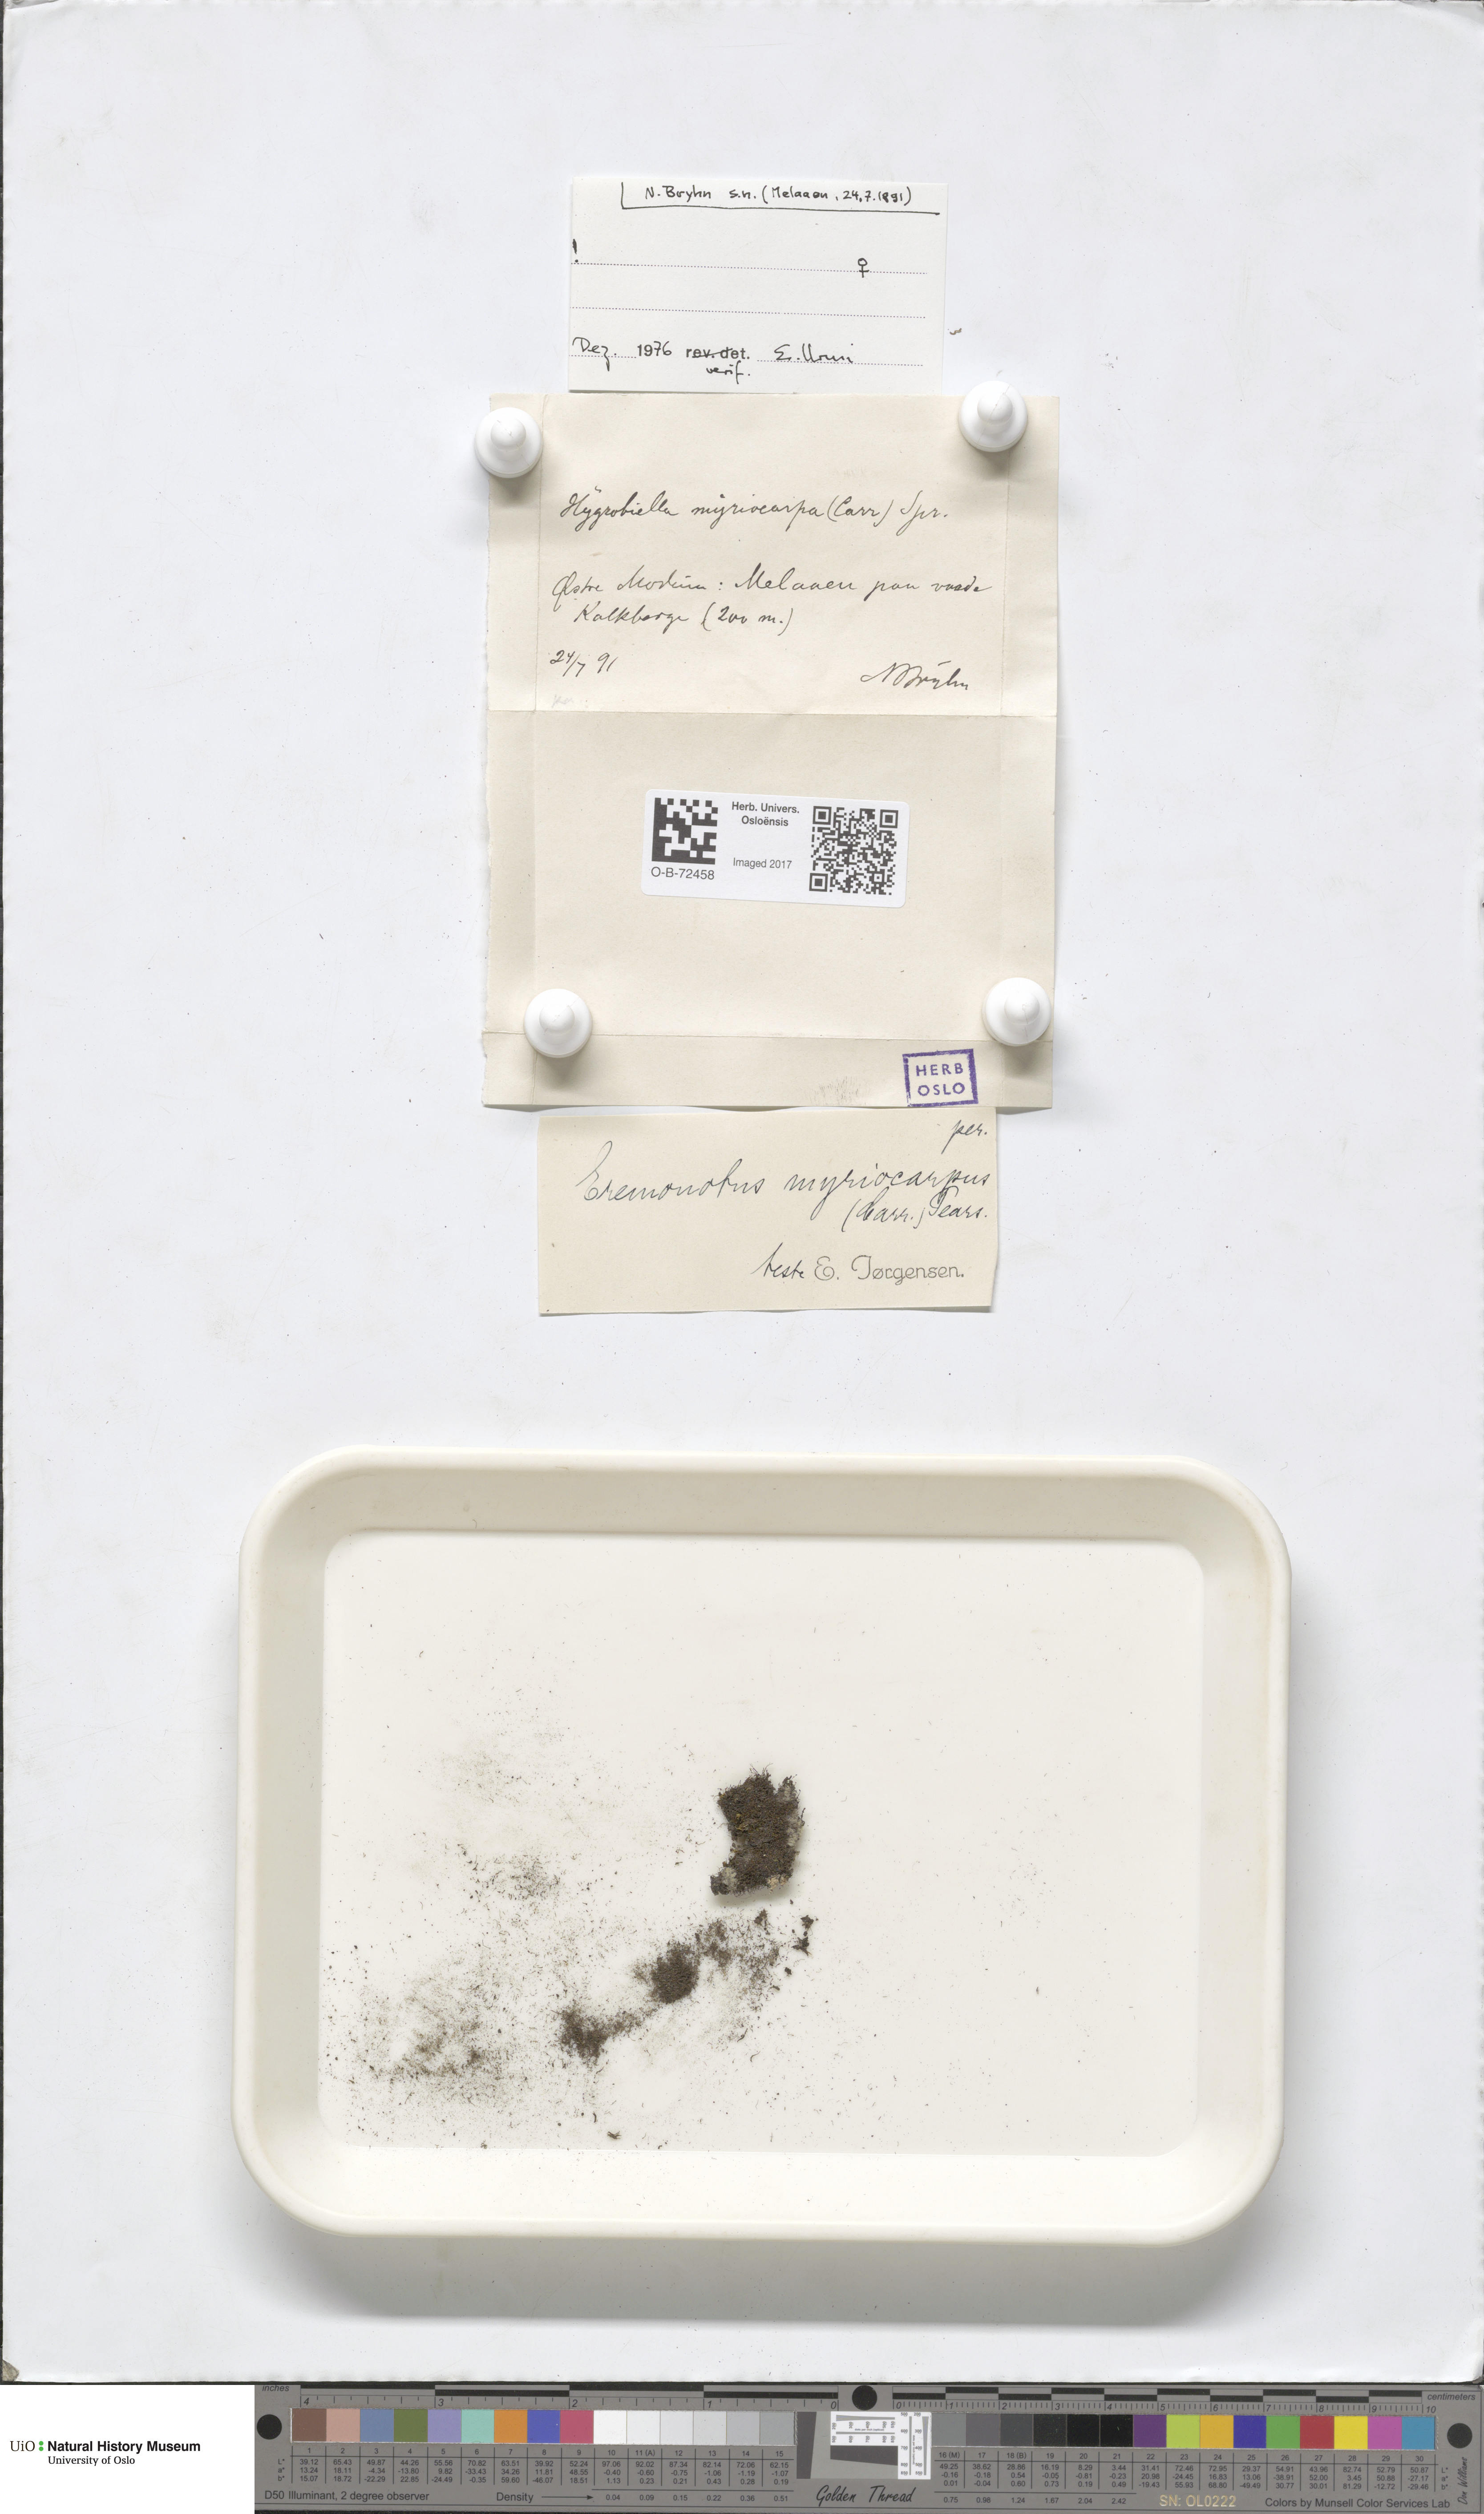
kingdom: Plantae
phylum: Marchantiophyta
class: Jungermanniopsida
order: Jungermanniales
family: Jungermanniaceae
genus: Eremonotus
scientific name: Eremonotus myriocarpus
